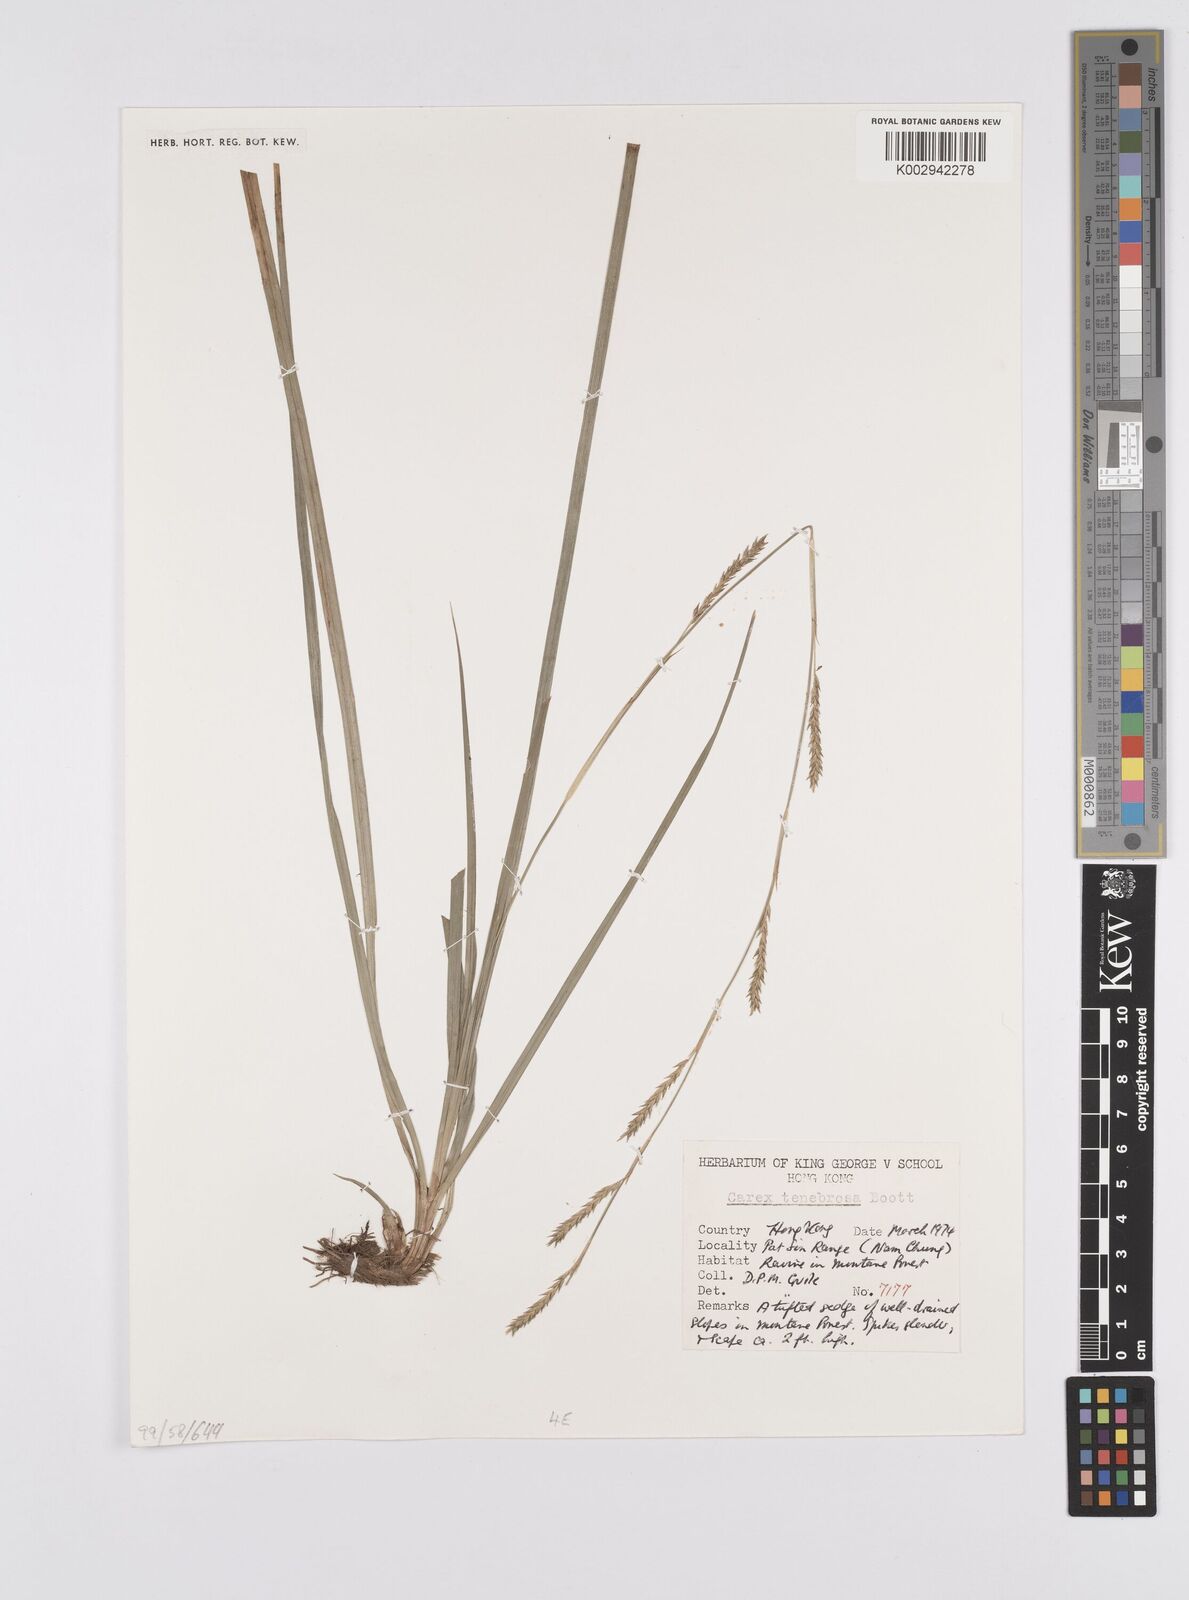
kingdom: Plantae
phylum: Tracheophyta
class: Liliopsida
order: Poales
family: Cyperaceae
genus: Carex
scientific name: Carex tenebrosa
